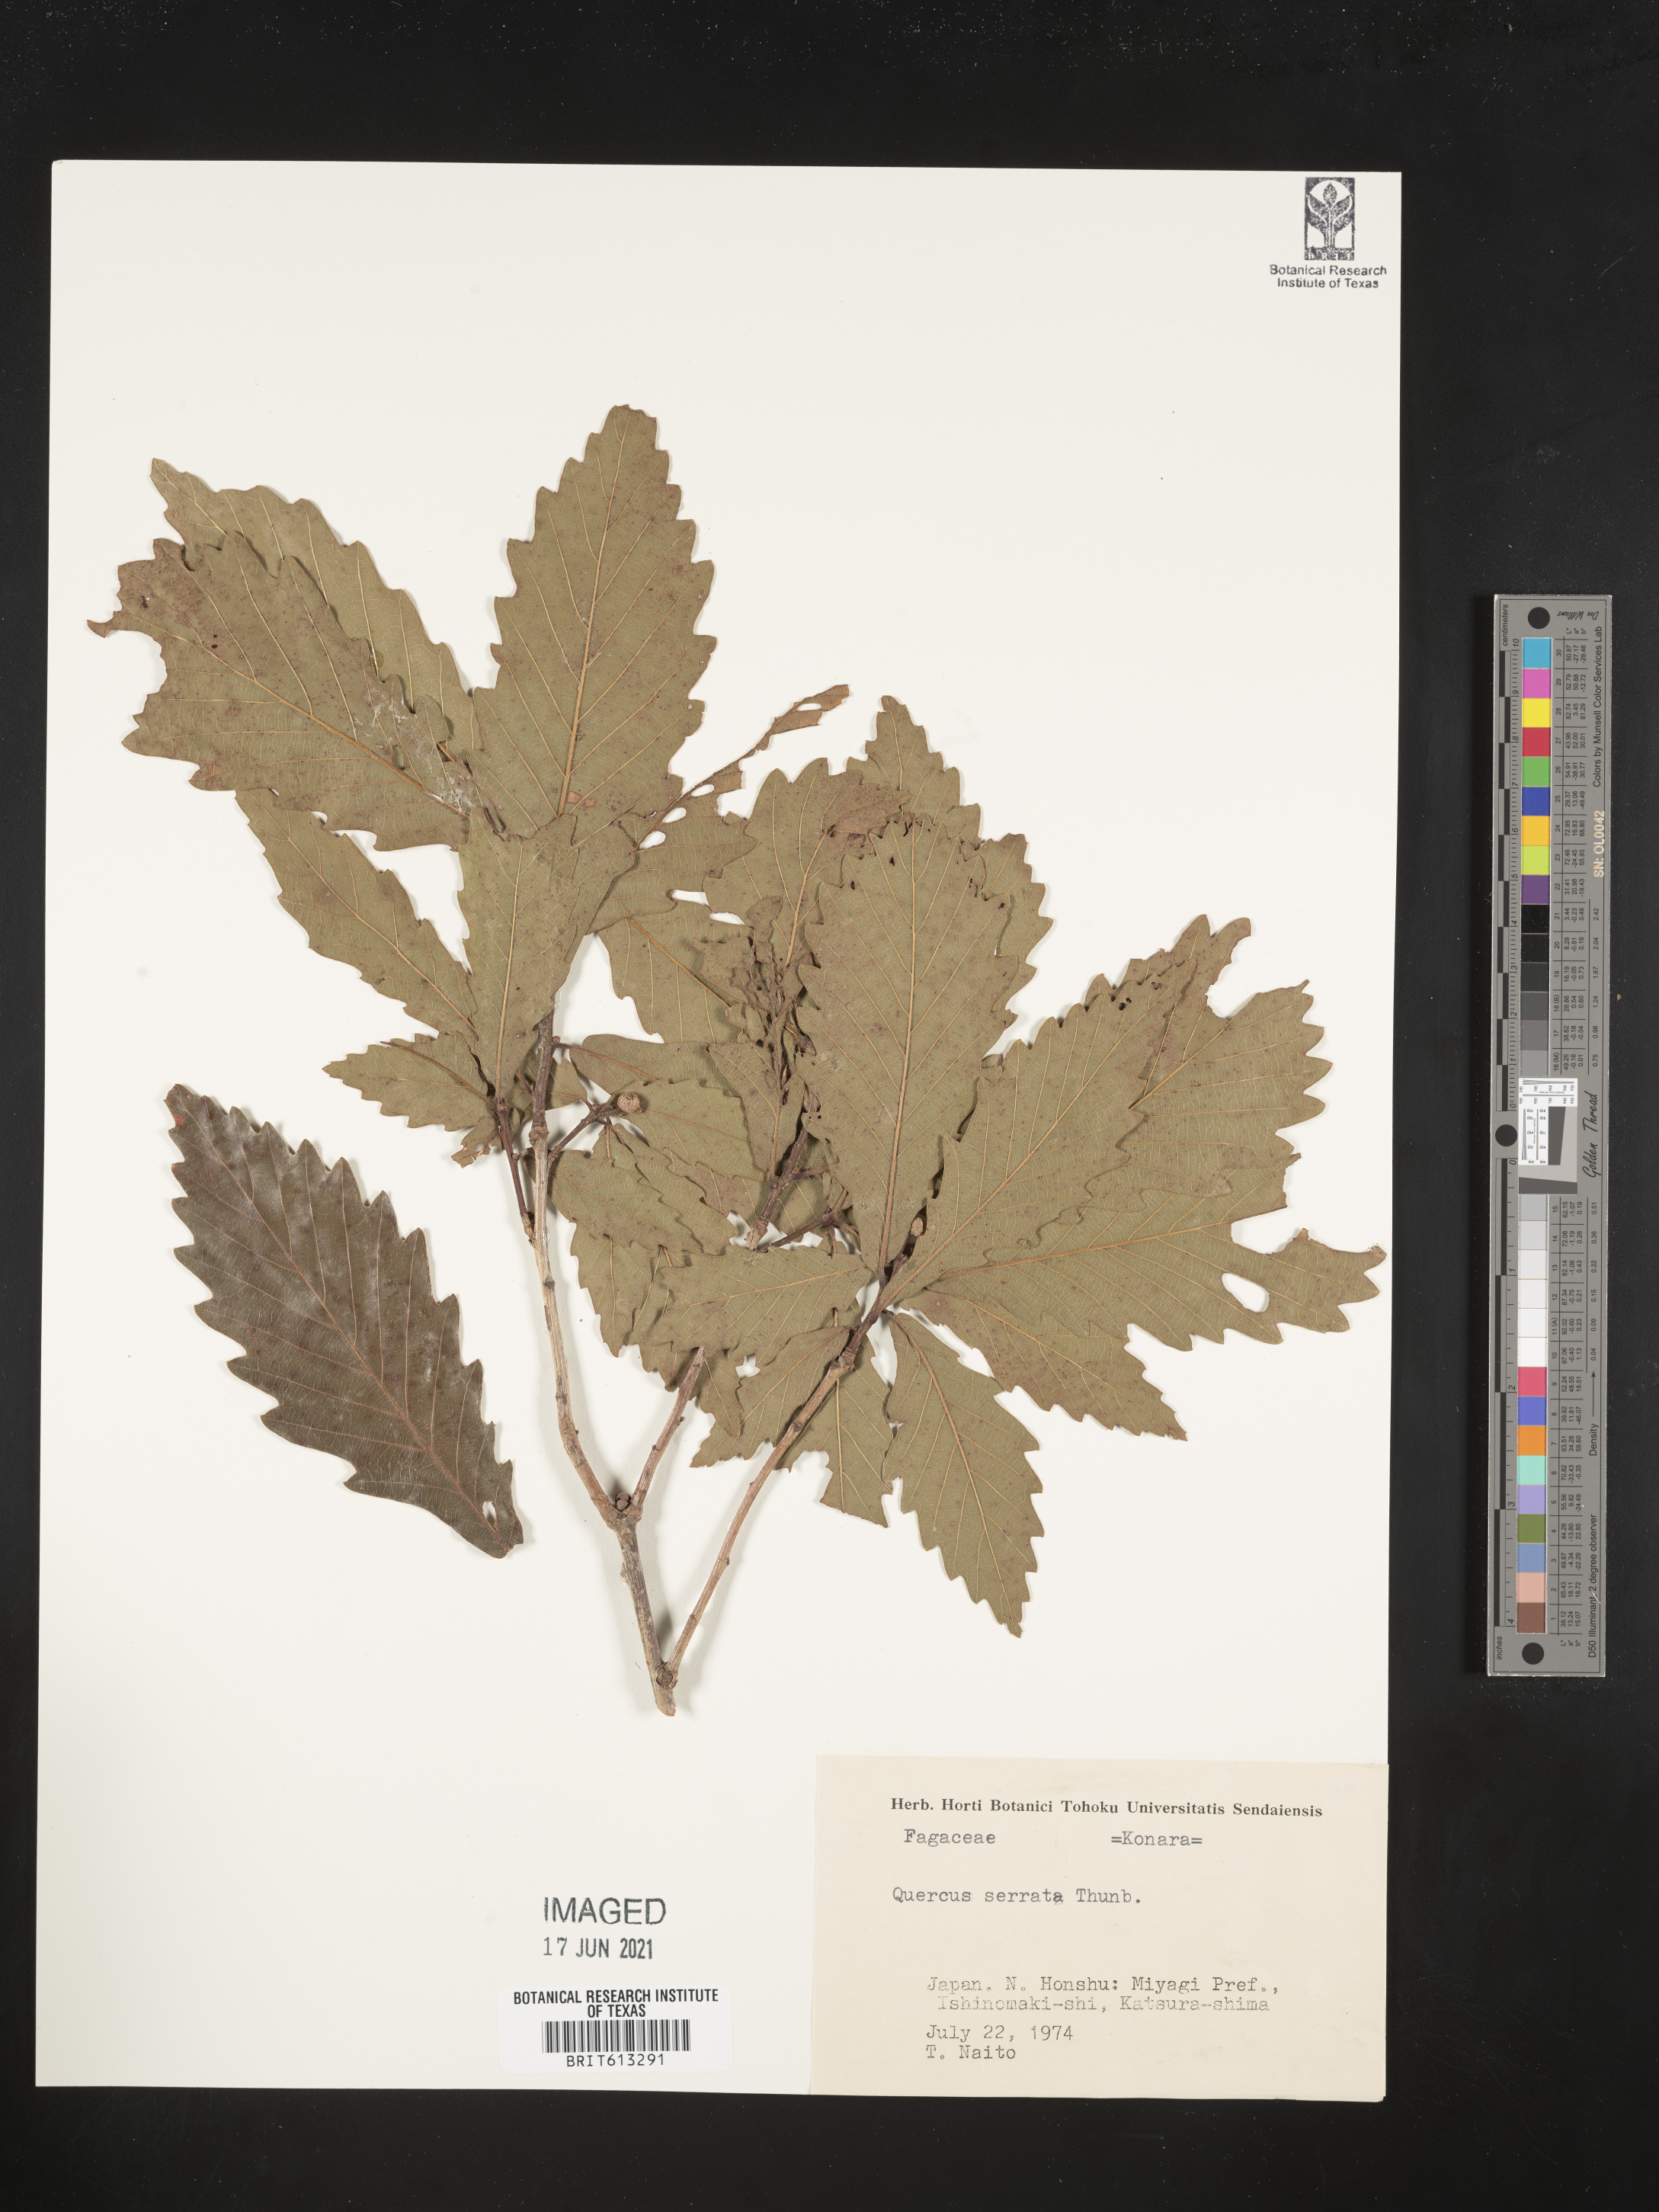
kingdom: Plantae
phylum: Tracheophyta
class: Magnoliopsida
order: Fagales
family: Fagaceae
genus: Quercus
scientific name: Quercus serrata
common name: Bao li
